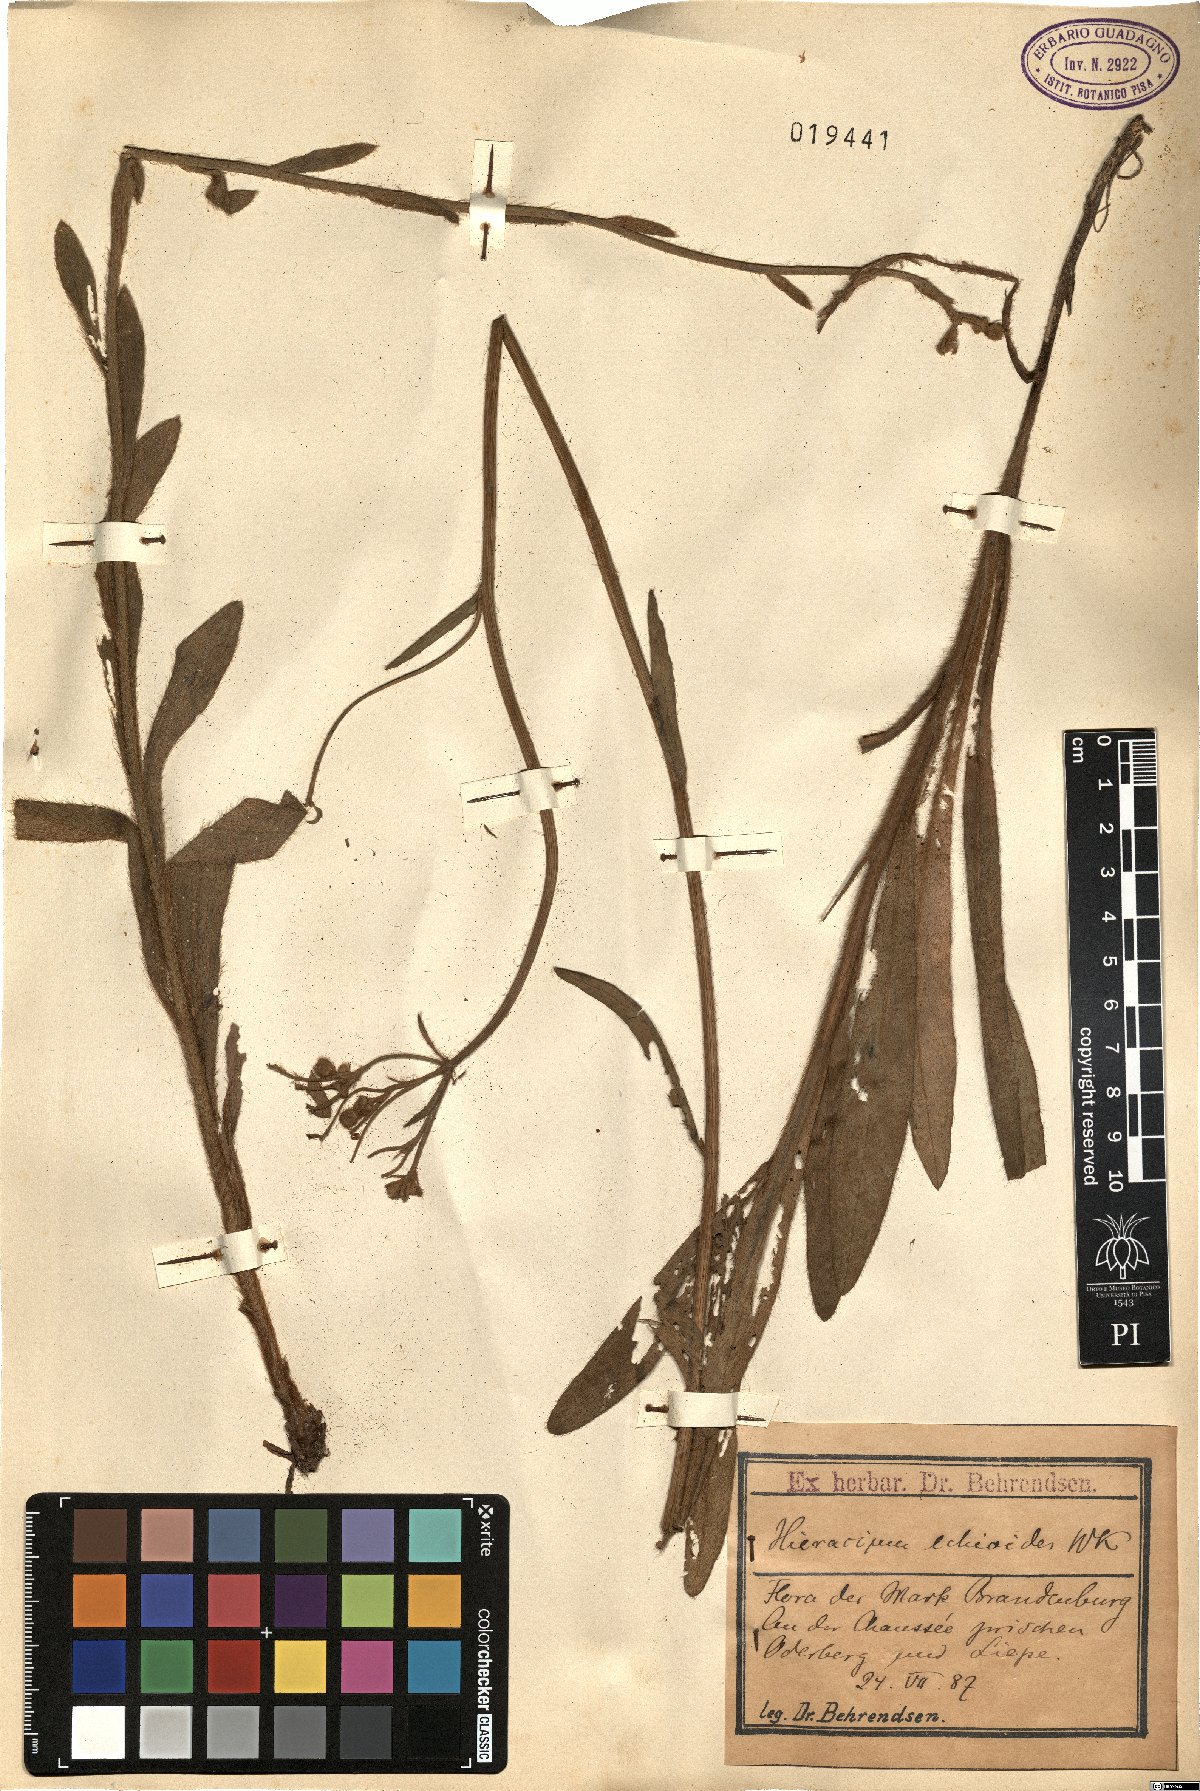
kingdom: Plantae
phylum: Tracheophyta
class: Magnoliopsida
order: Asterales
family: Asteraceae
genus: Pilosella
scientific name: Pilosella echioides
